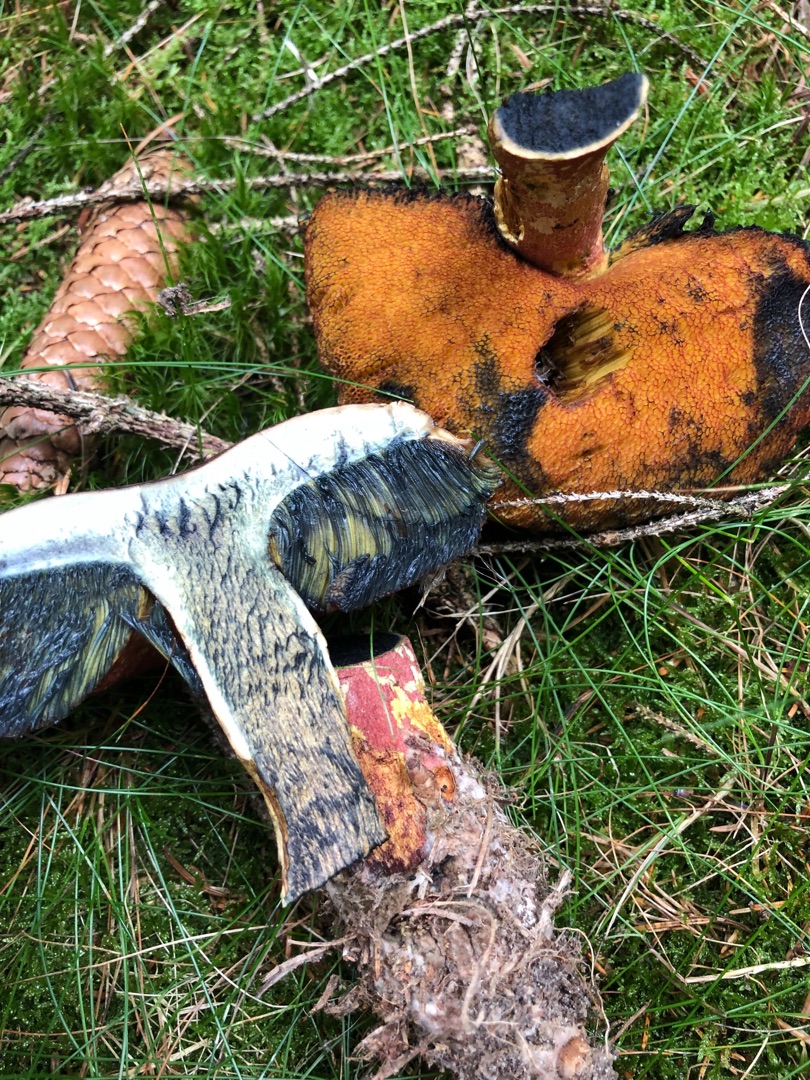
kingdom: Fungi
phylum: Basidiomycota
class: Agaricomycetes
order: Boletales
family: Boletaceae
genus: Neoboletus
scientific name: Neoboletus luridiformis
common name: Punktstokket indigorørhat
